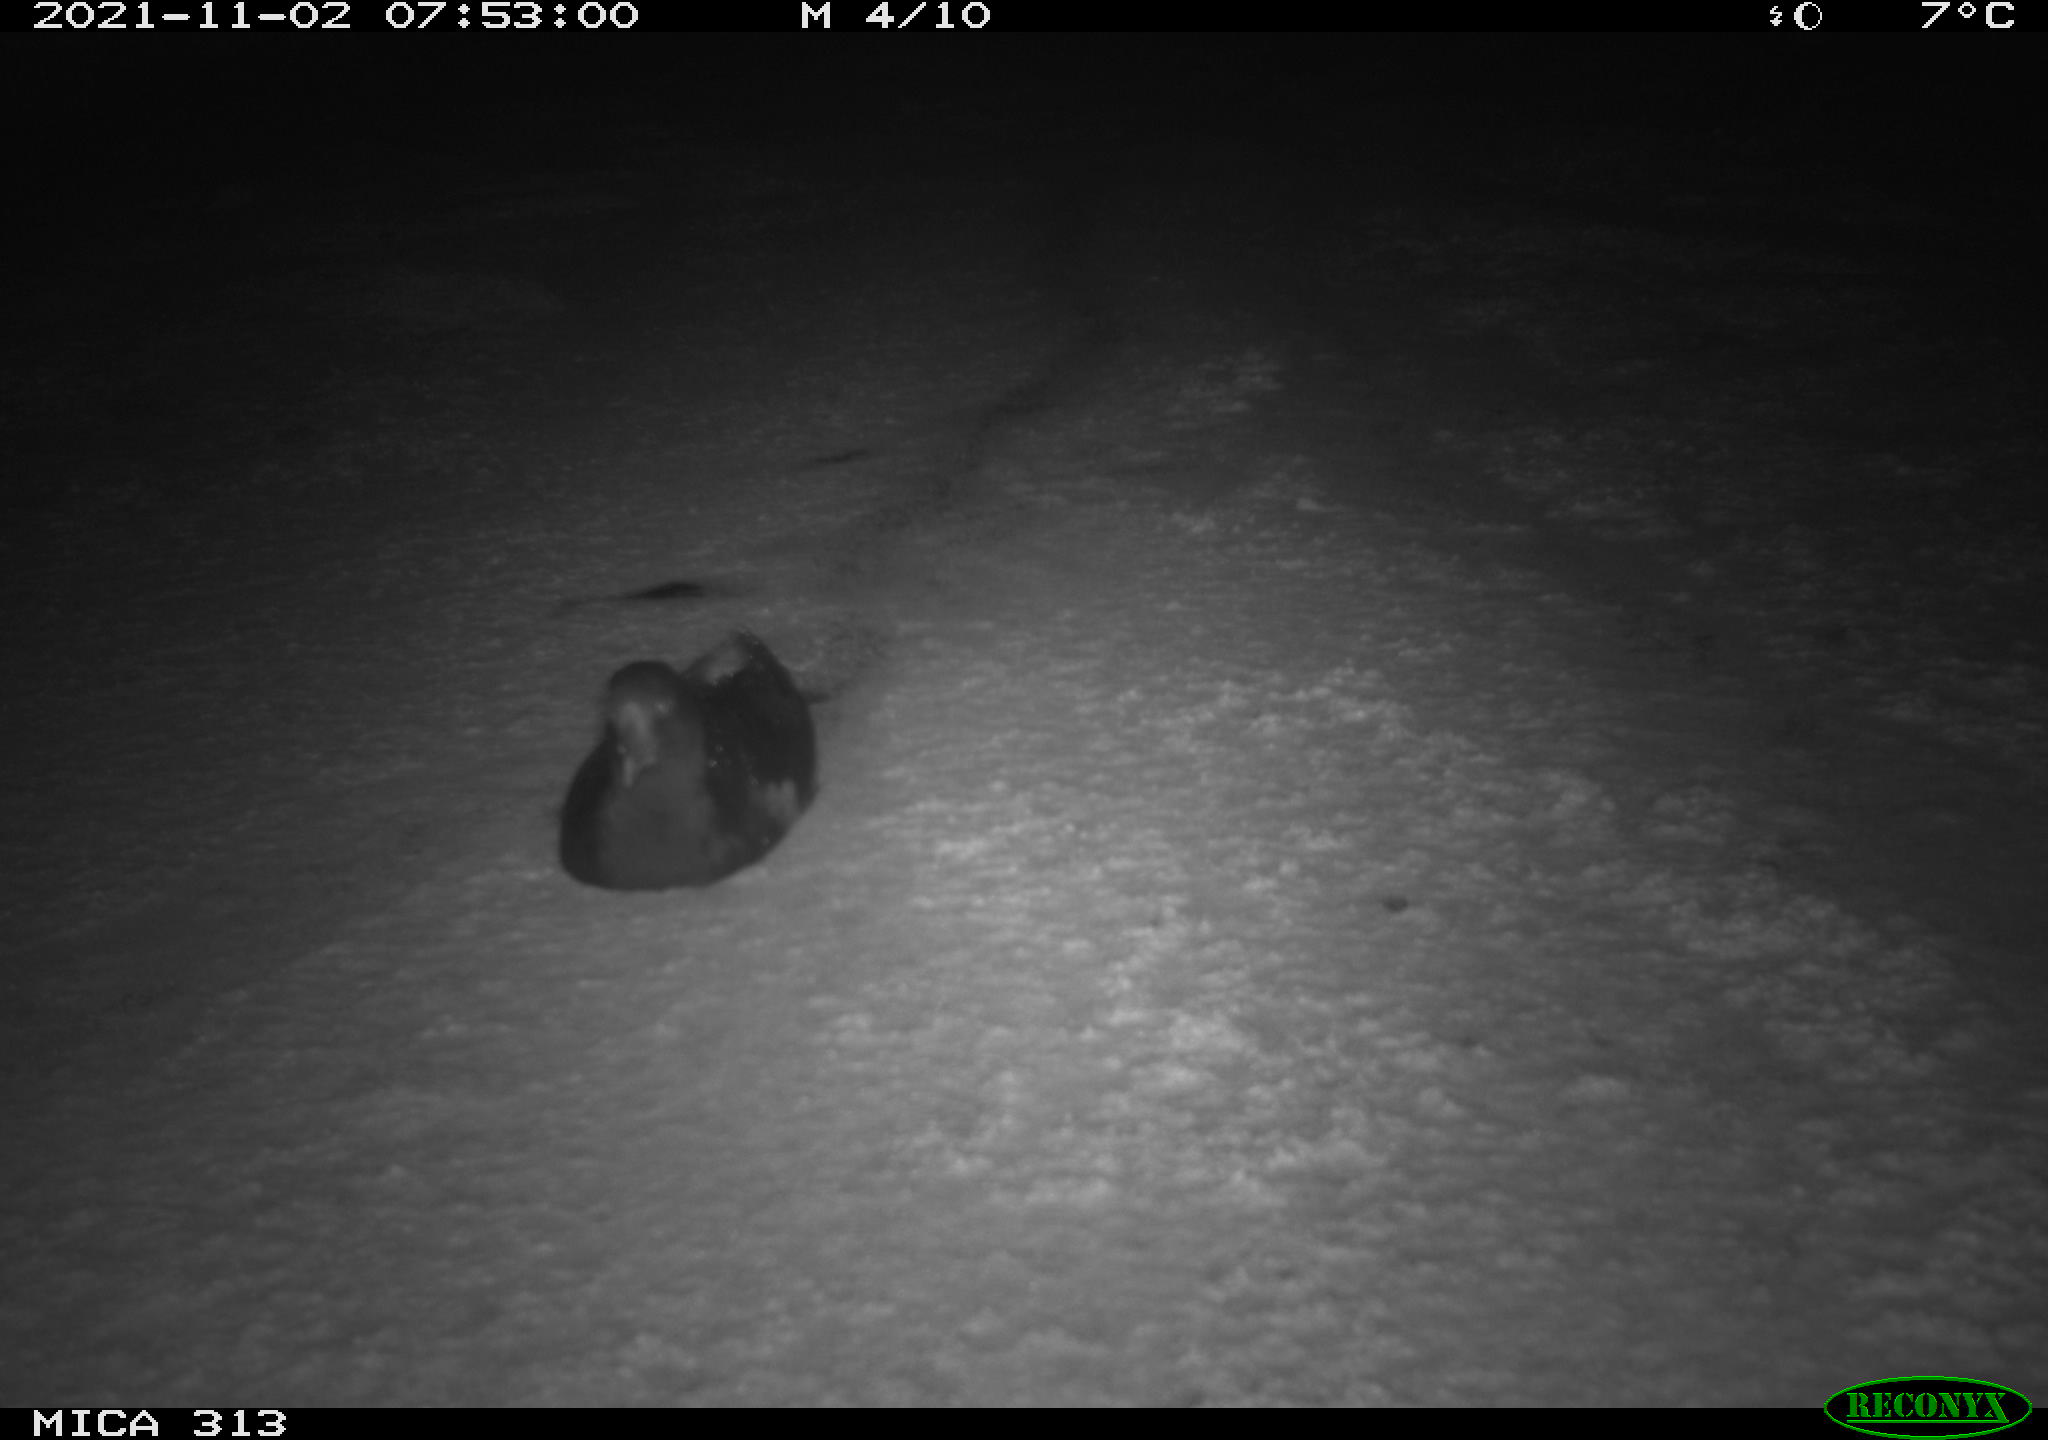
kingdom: Animalia
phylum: Chordata
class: Aves
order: Gruiformes
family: Rallidae
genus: Gallinula
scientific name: Gallinula chloropus
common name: Common moorhen
